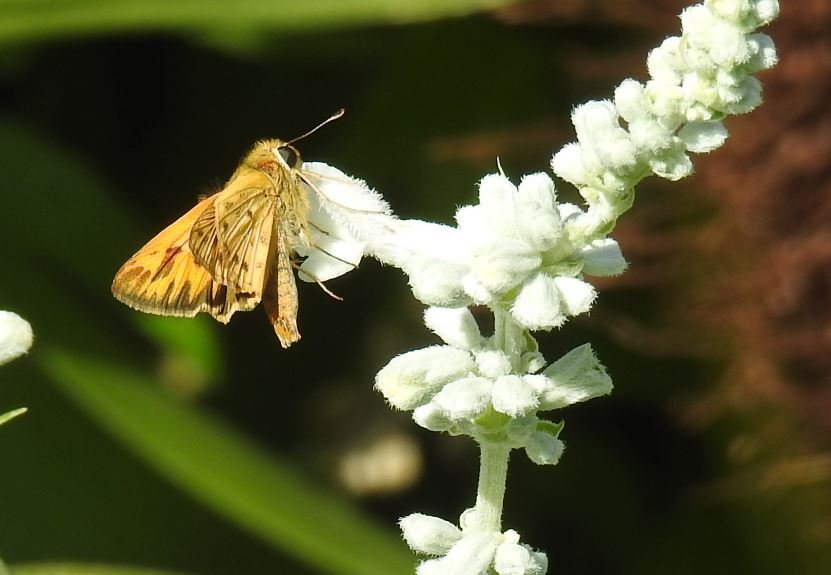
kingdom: Animalia
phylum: Arthropoda
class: Insecta
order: Lepidoptera
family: Hesperiidae
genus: Hylephila
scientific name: Hylephila phyleus
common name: Fiery Skipper
